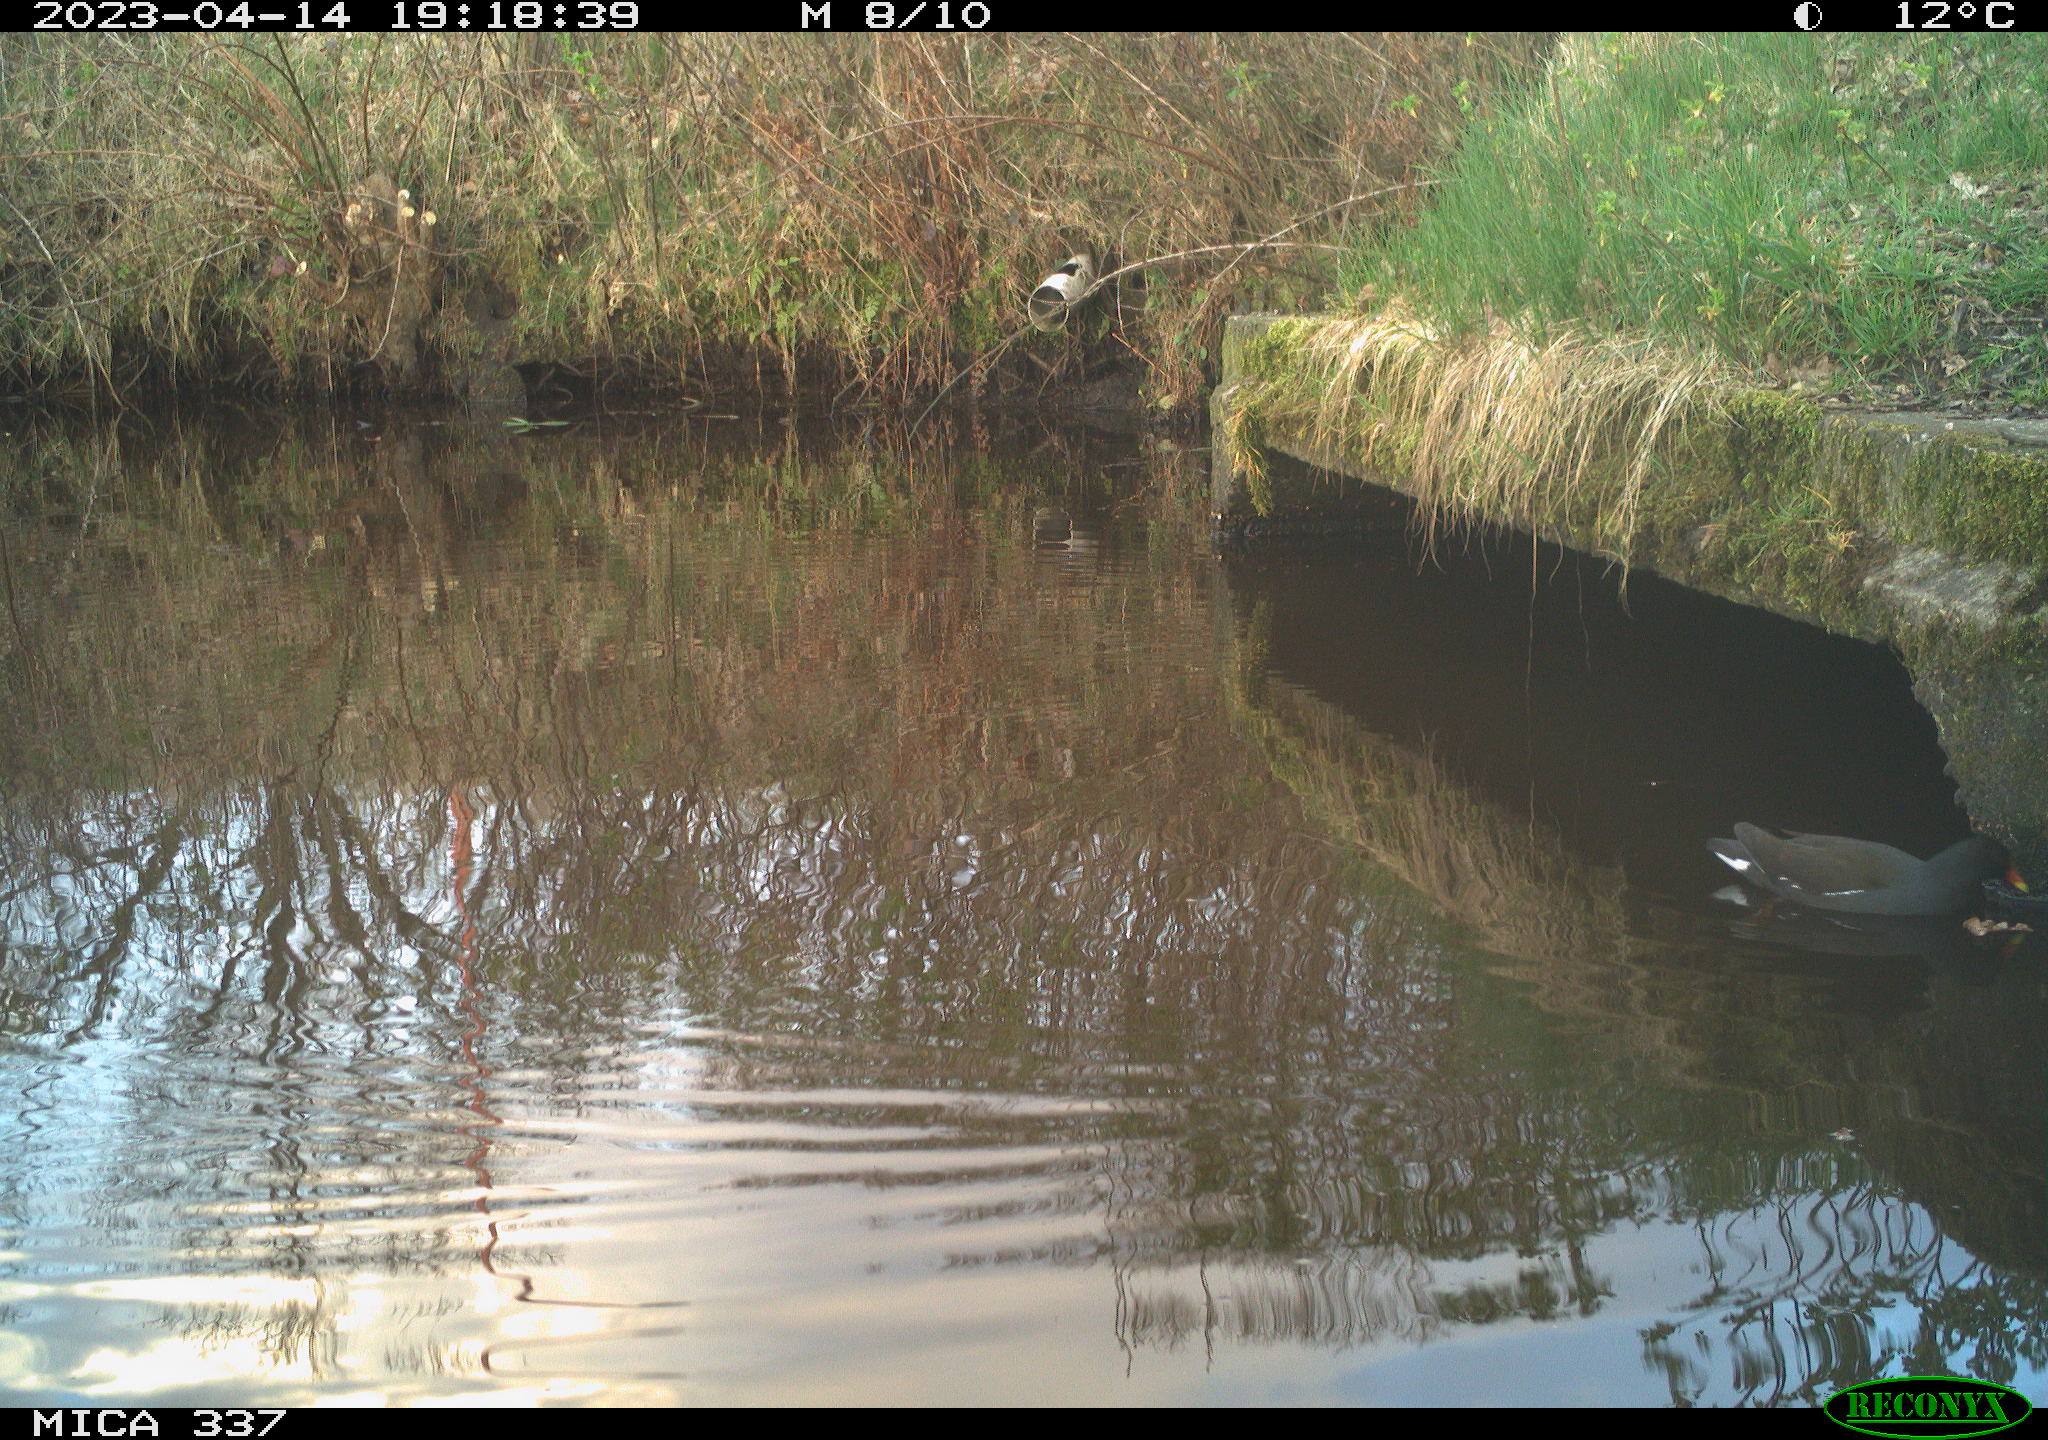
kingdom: Animalia
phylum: Chordata
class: Aves
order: Gruiformes
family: Rallidae
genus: Gallinula
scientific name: Gallinula chloropus
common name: Common moorhen
